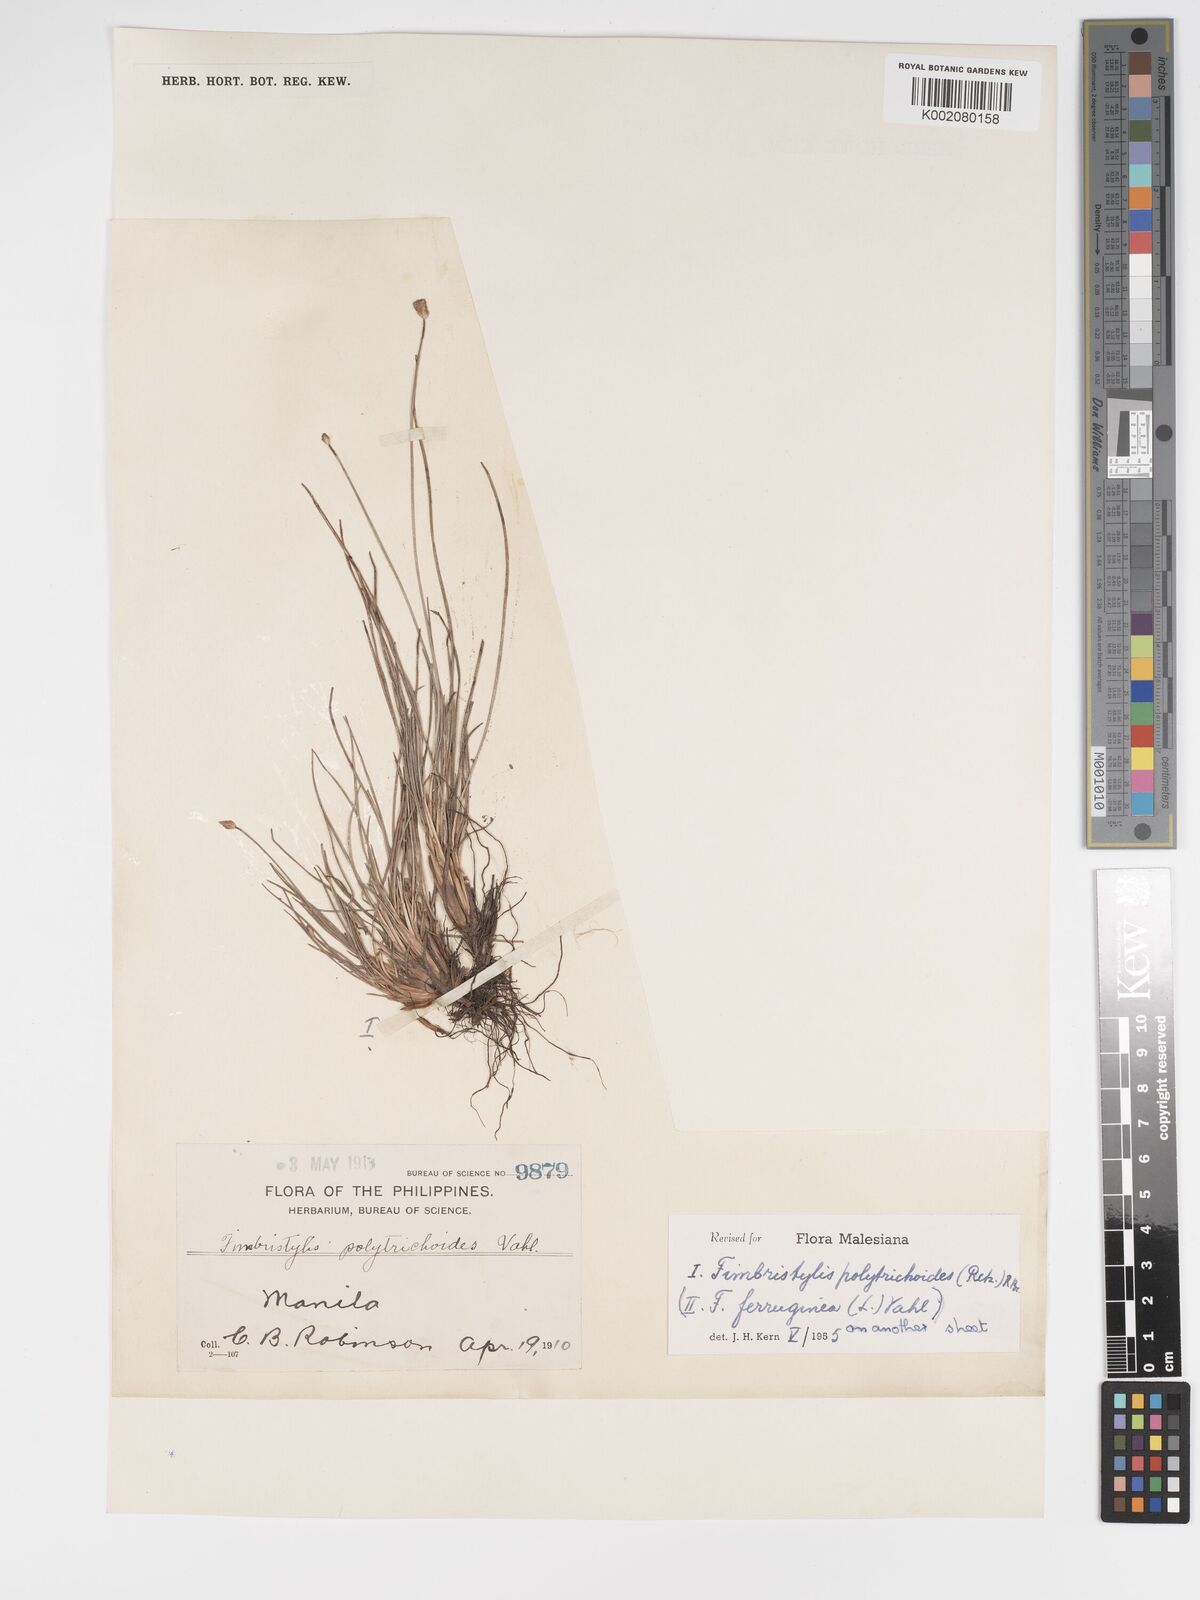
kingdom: Plantae
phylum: Tracheophyta
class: Liliopsida
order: Poales
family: Cyperaceae
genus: Fimbristylis
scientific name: Fimbristylis polytrichoides
